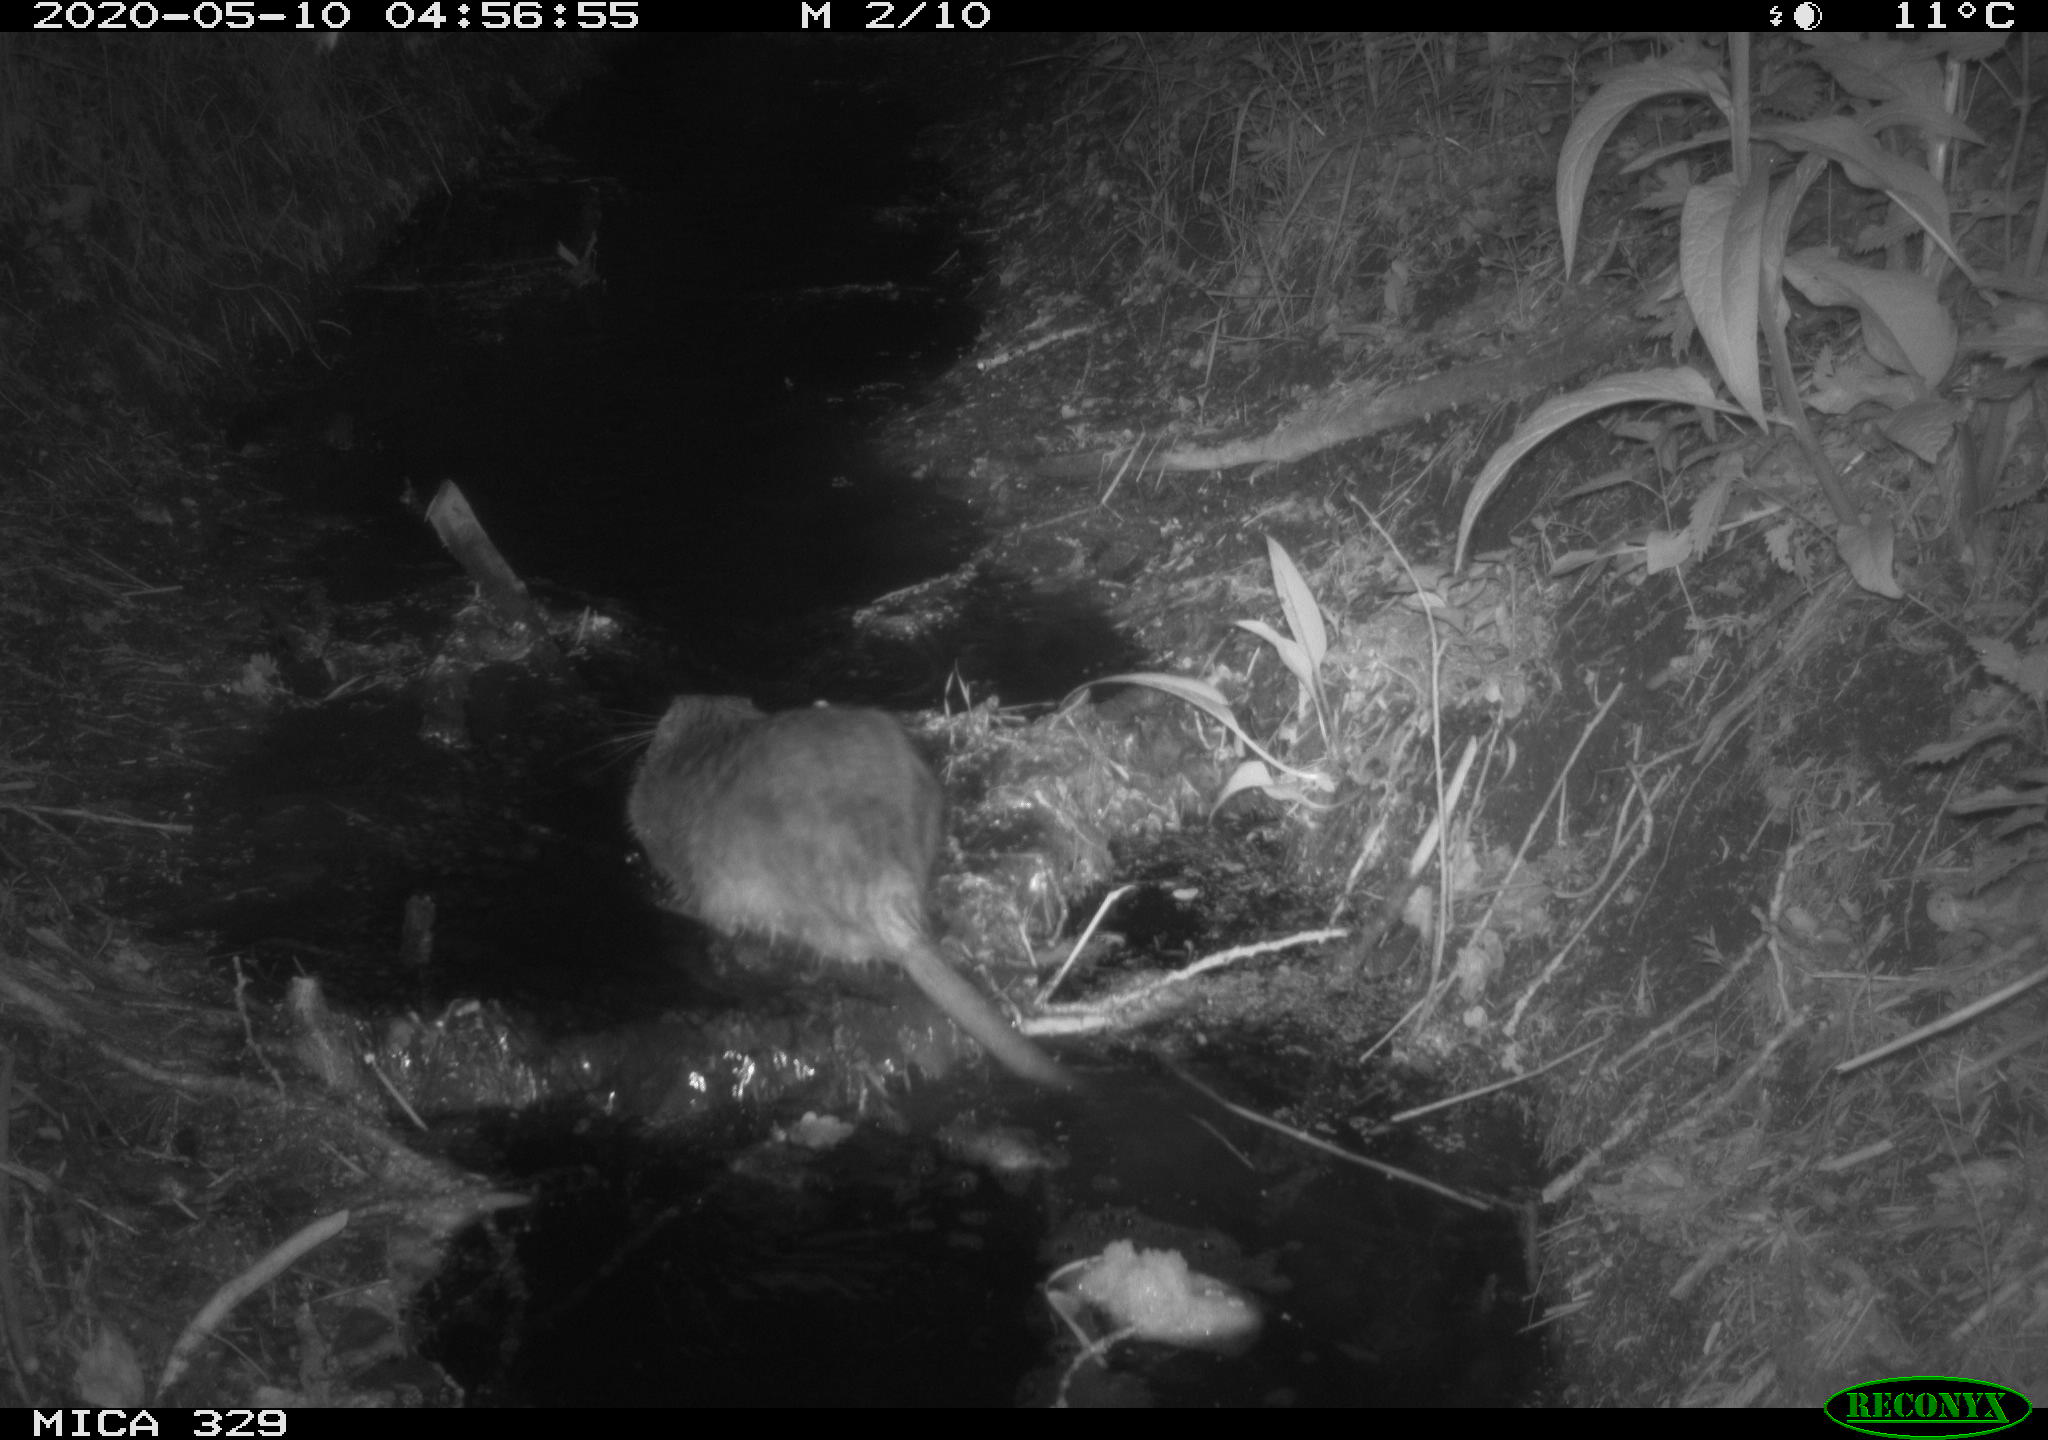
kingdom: Animalia
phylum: Chordata
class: Mammalia
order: Rodentia
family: Cricetidae
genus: Ondatra
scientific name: Ondatra zibethicus
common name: Muskrat
